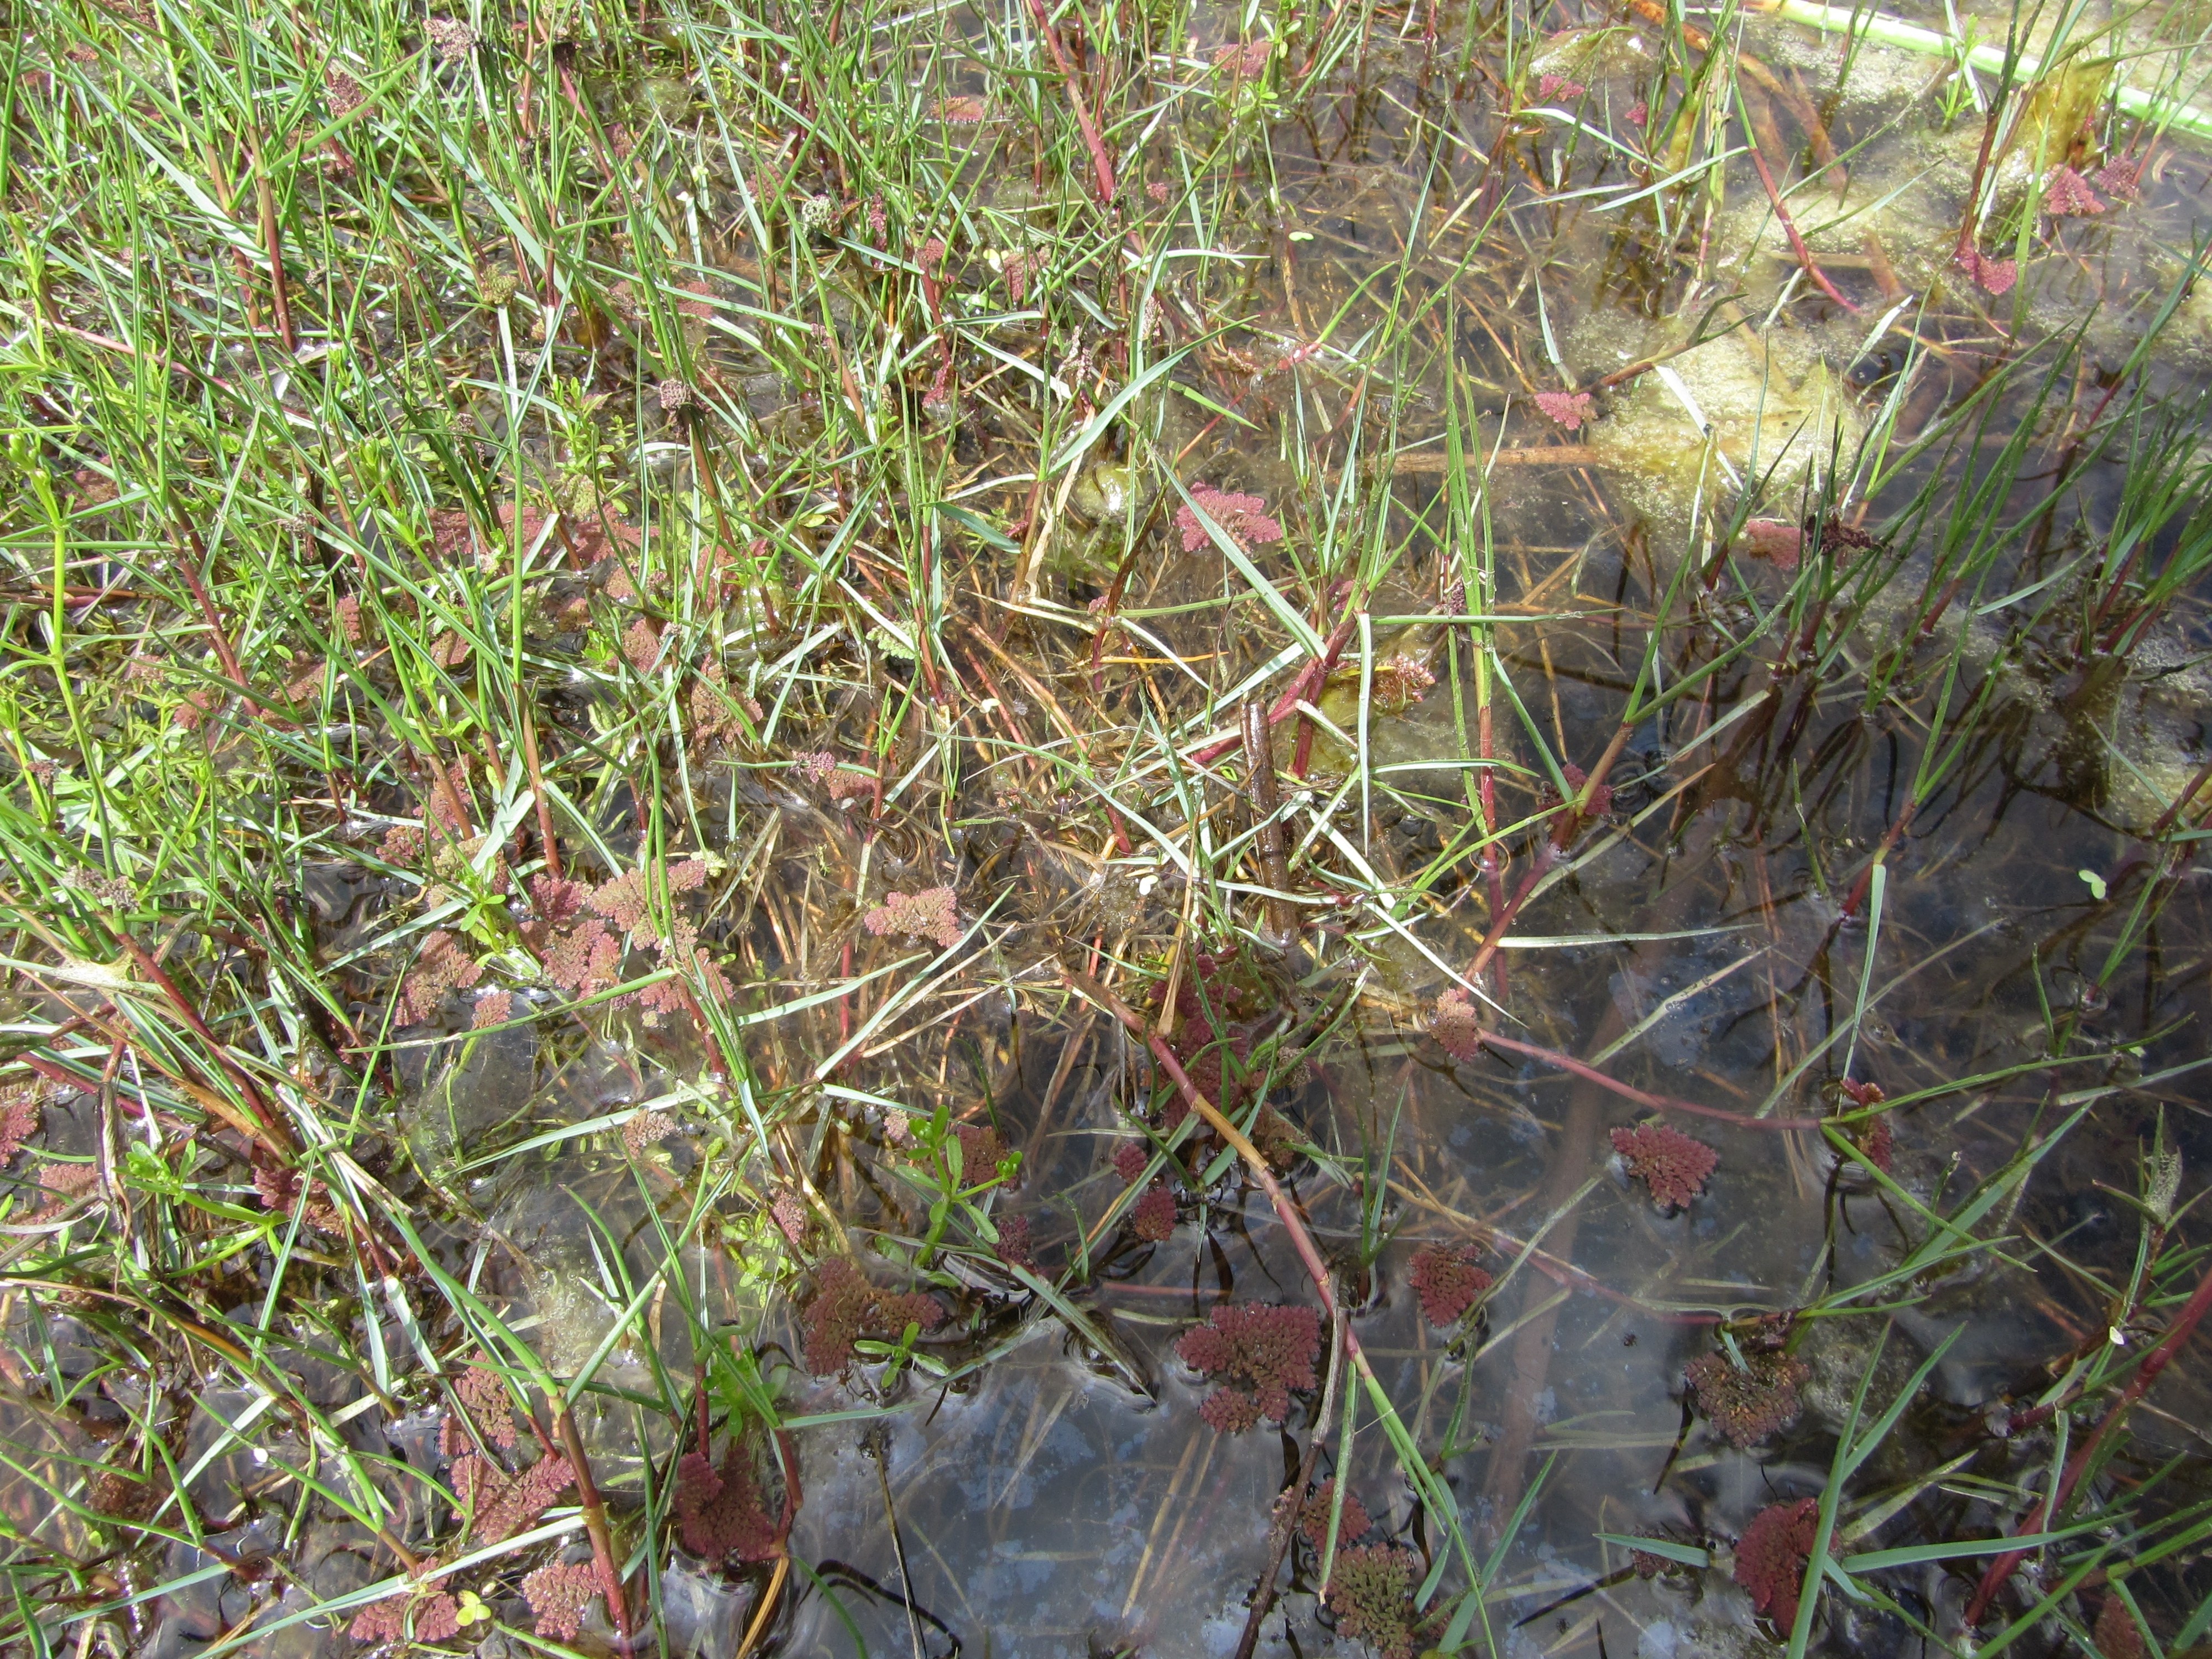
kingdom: Plantae
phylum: Tracheophyta
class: Polypodiopsida
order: Salviniales
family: Salviniaceae
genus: Azolla
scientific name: Azolla pinnata
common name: Ferny azolla
